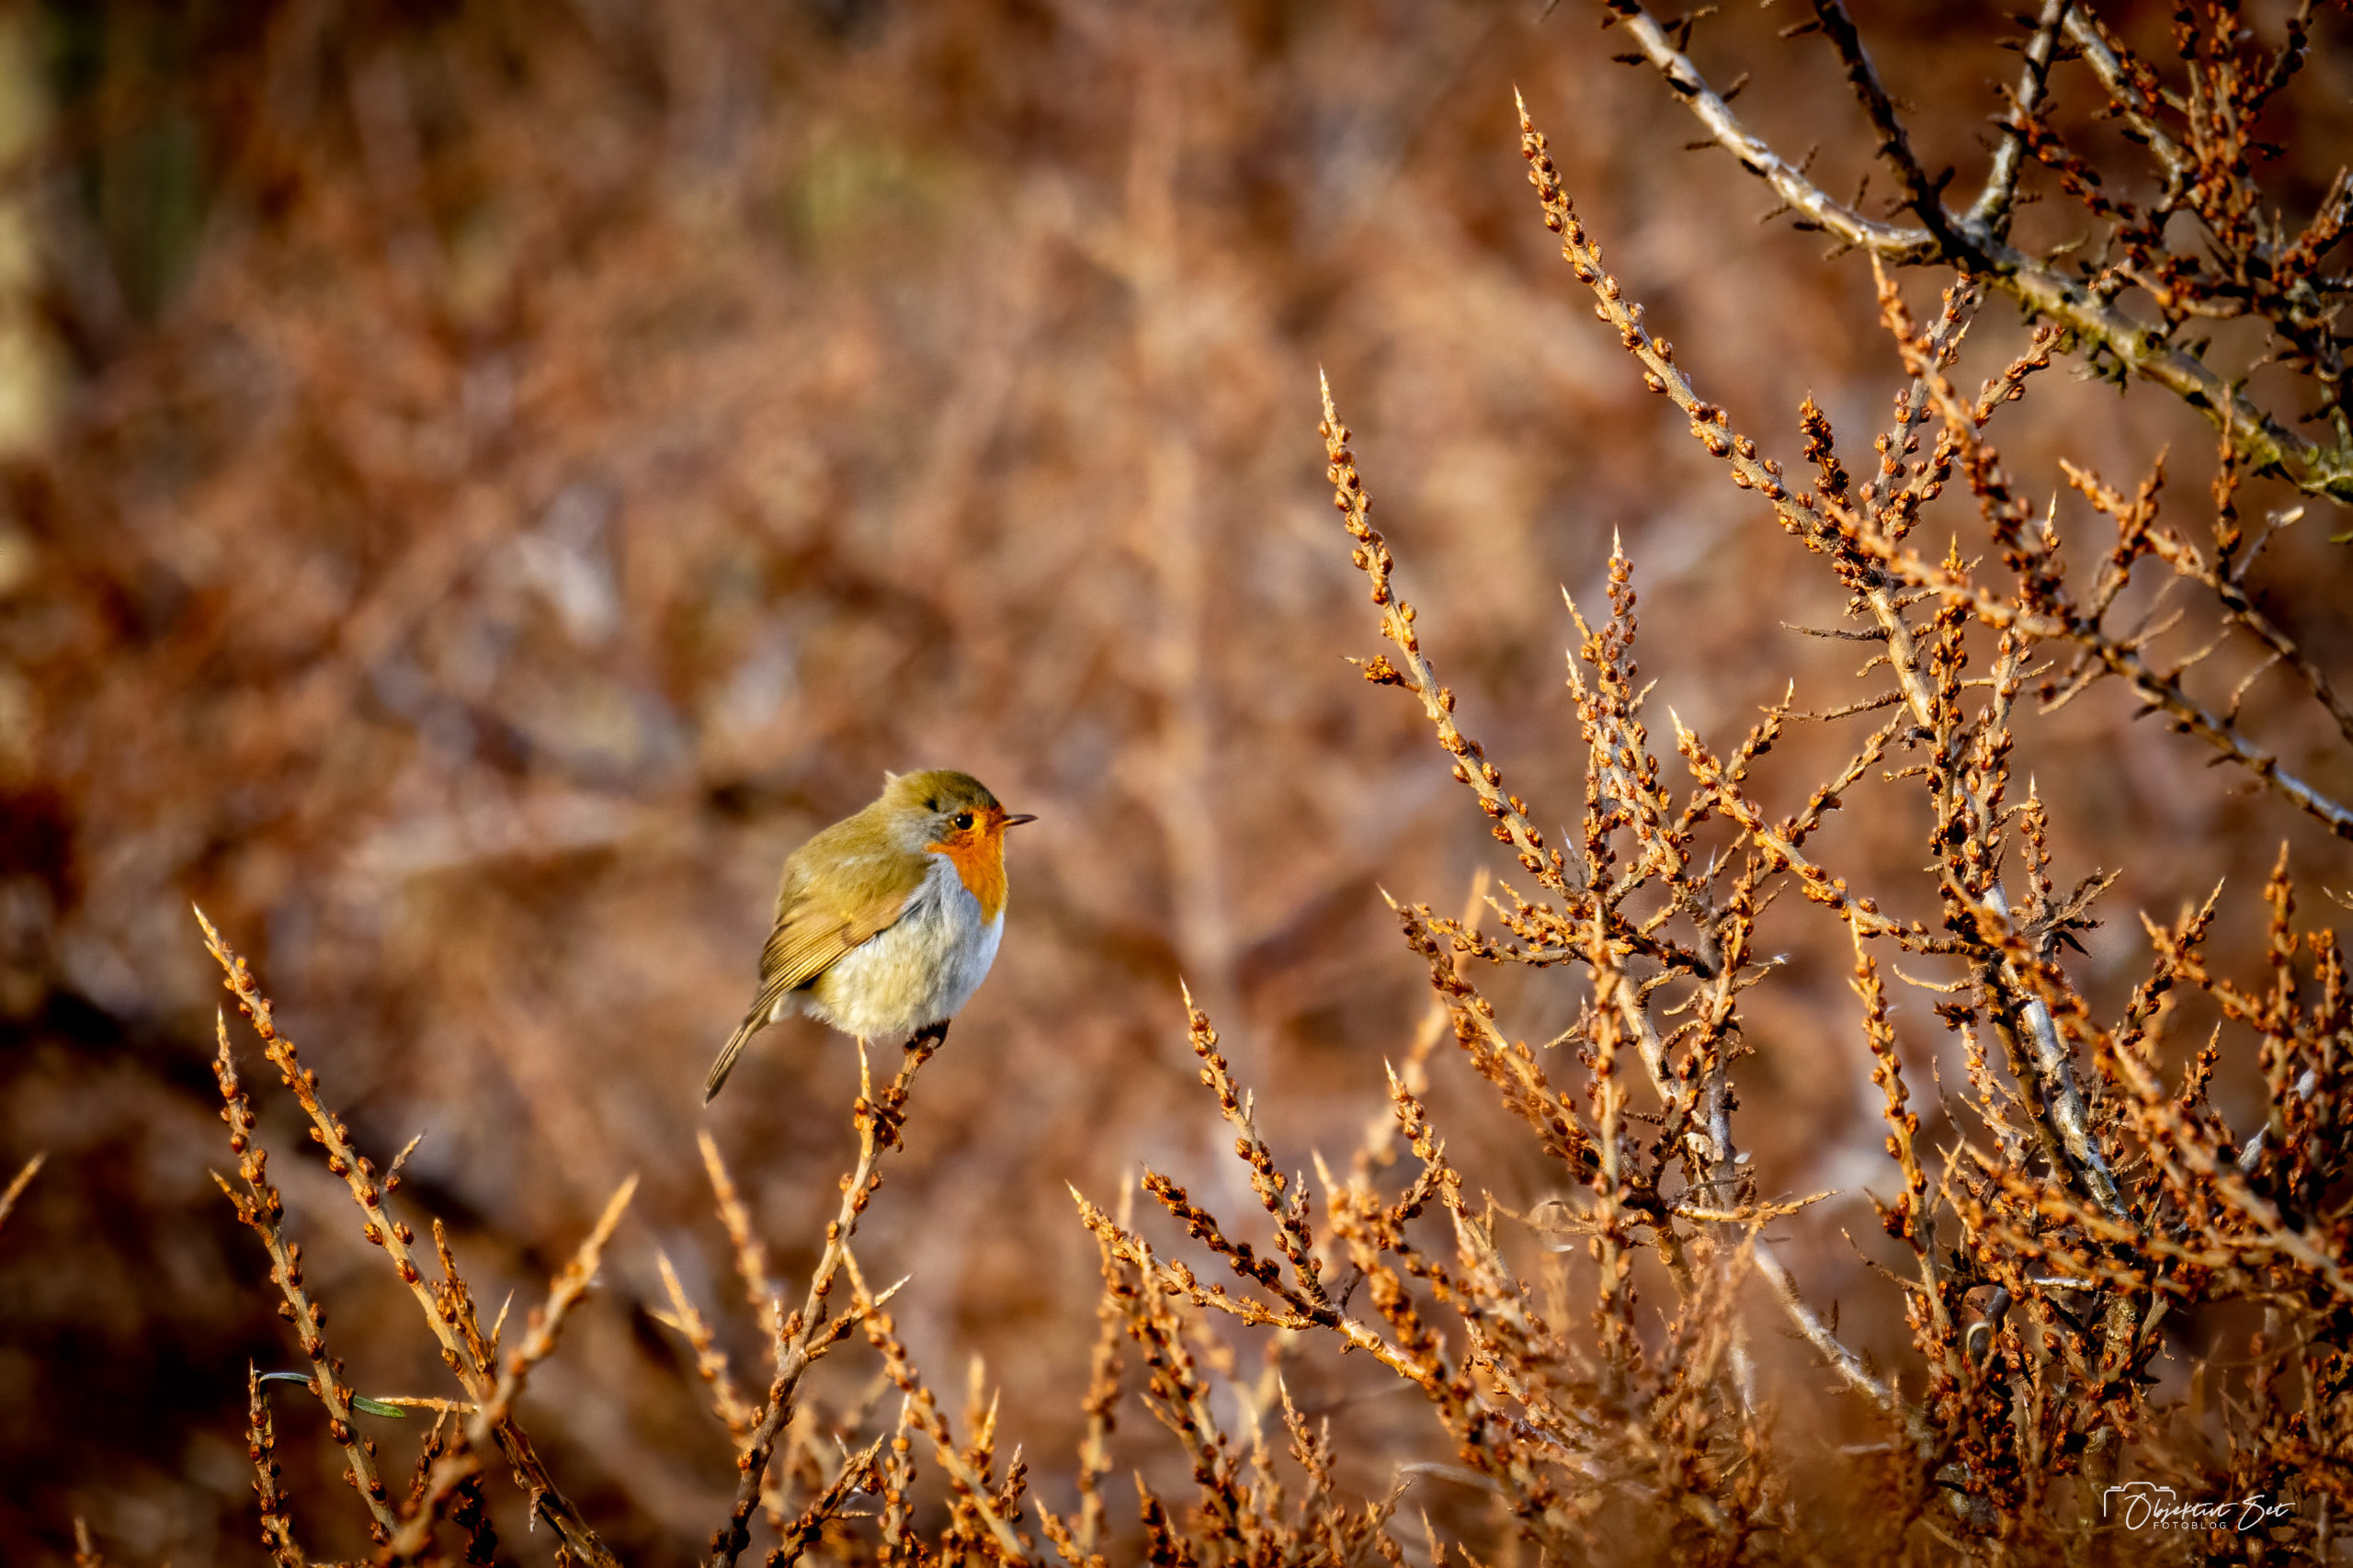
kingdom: Animalia
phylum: Chordata
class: Aves
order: Passeriformes
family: Muscicapidae
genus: Erithacus
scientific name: Erithacus rubecula
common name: Rødhals/rødkælk
